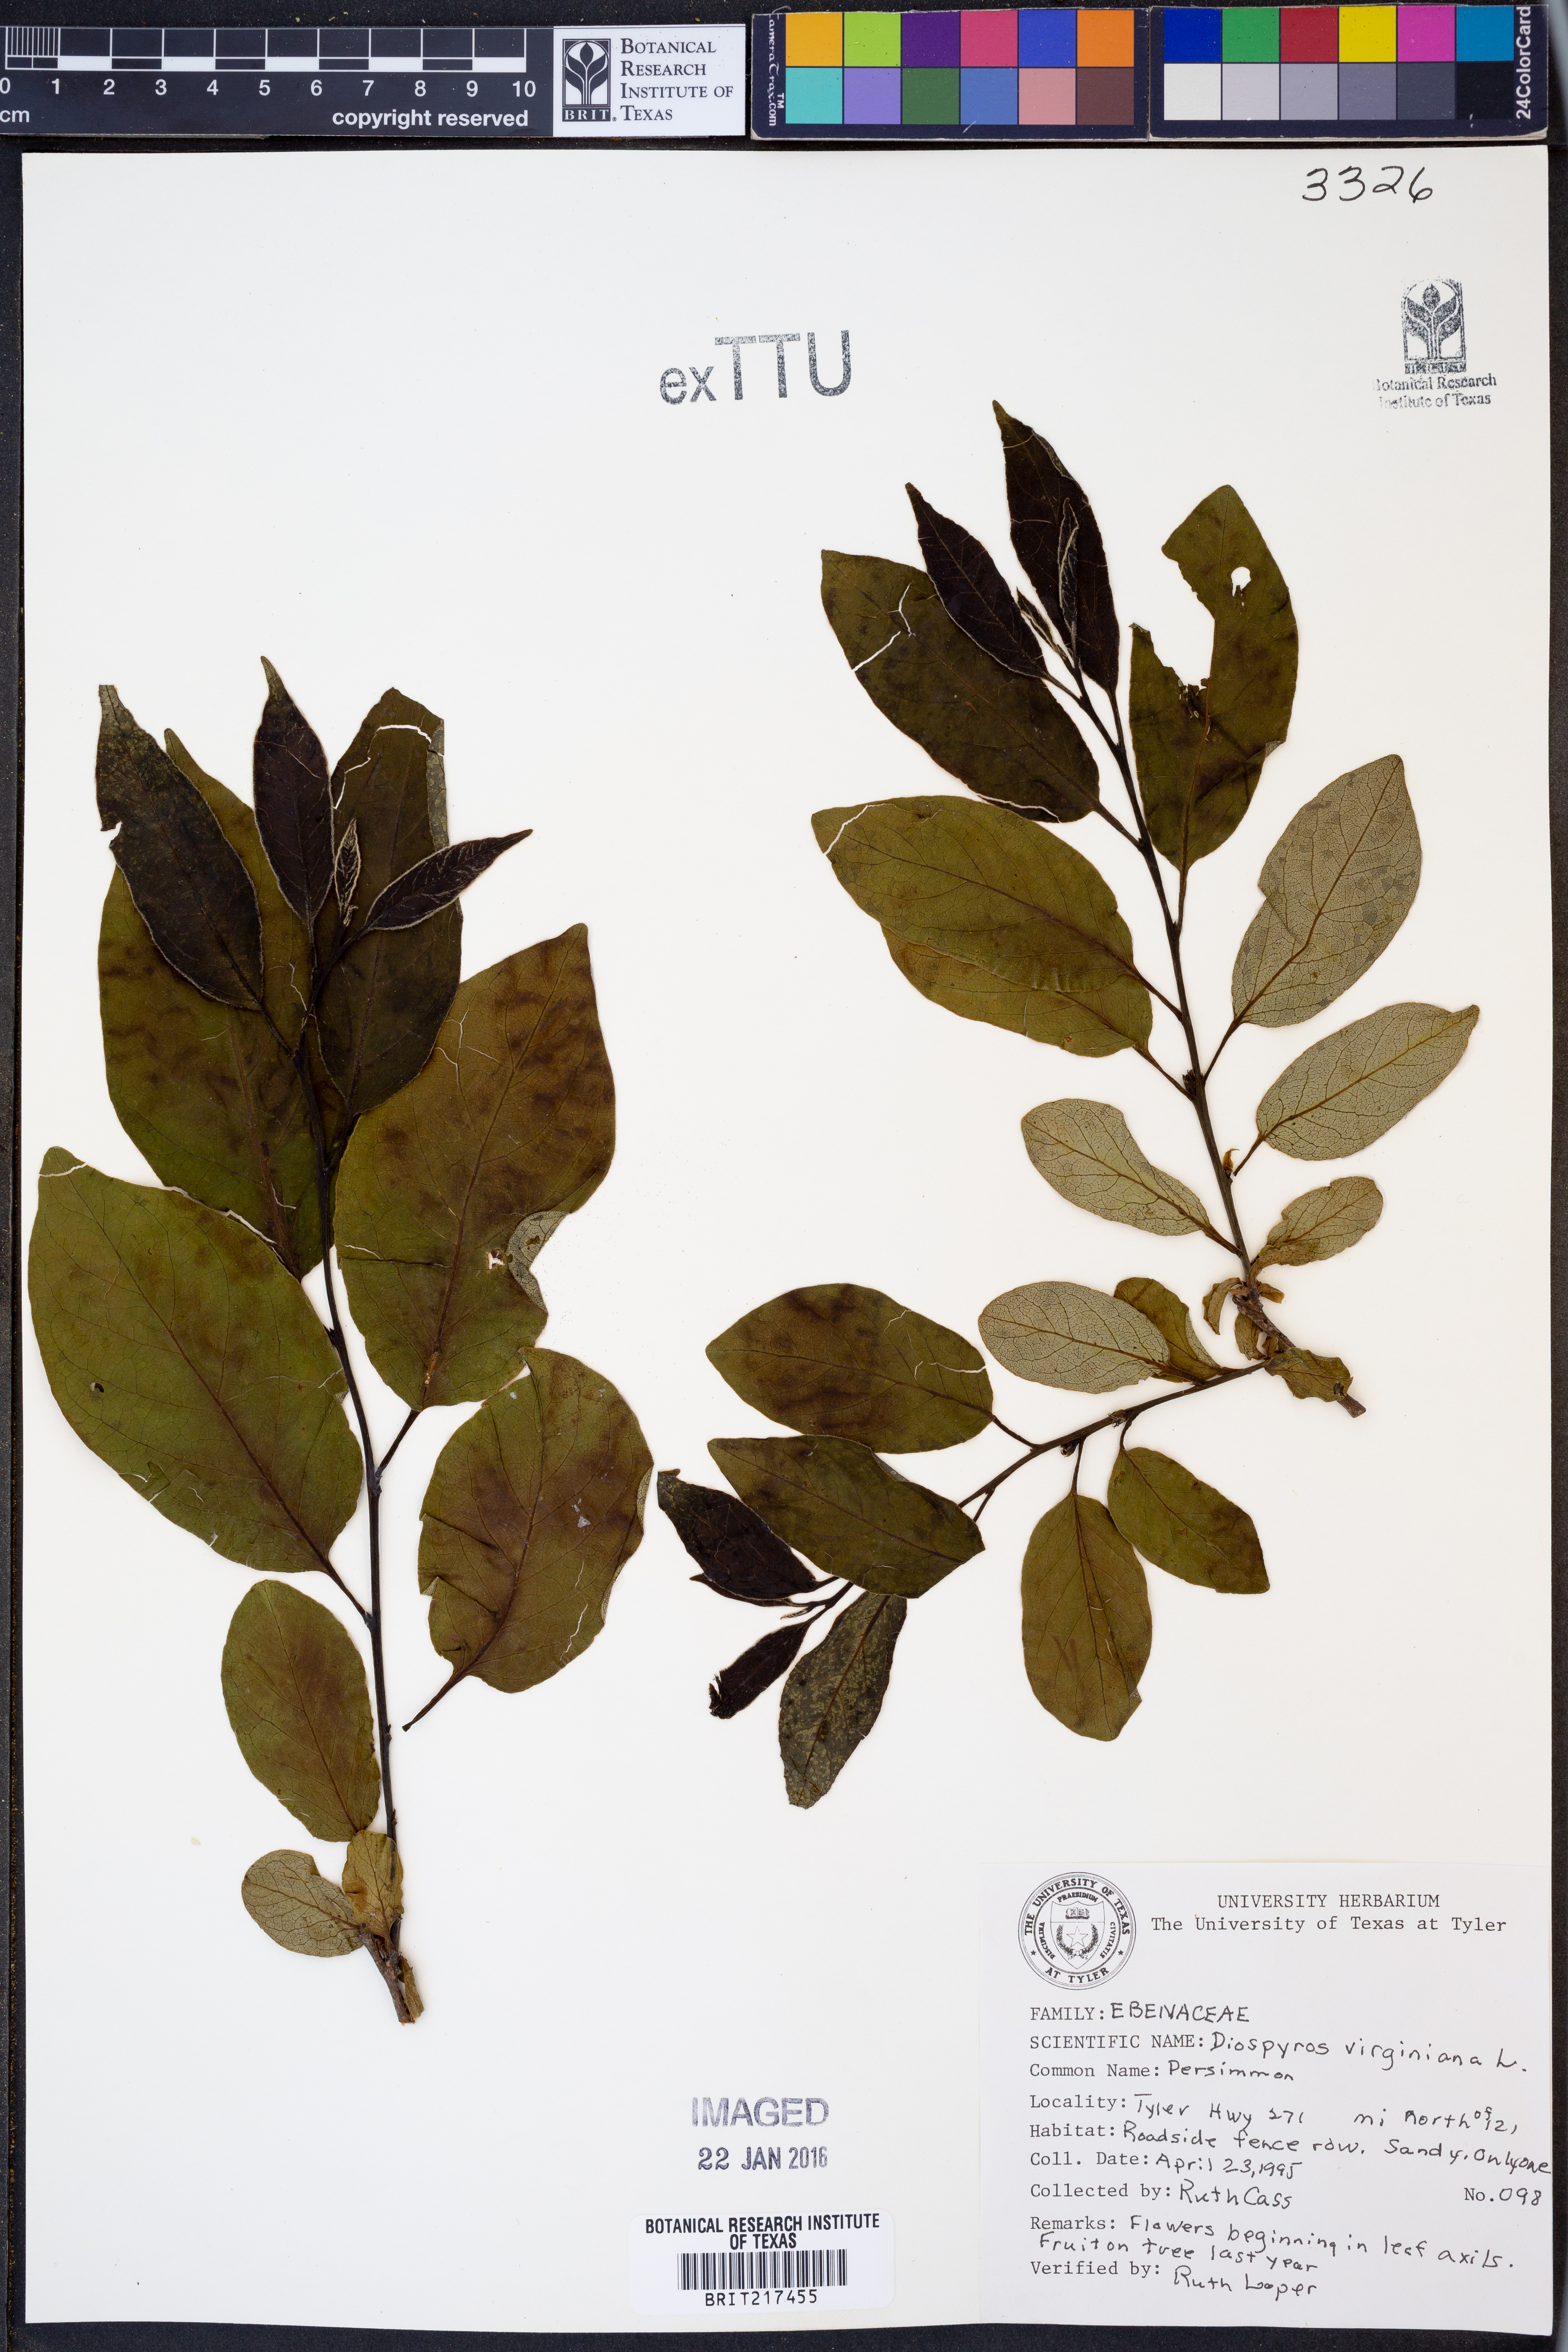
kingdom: Plantae
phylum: Tracheophyta
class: Magnoliopsida
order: Ericales
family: Ebenaceae
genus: Diospyros
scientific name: Diospyros virginiana
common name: Persimmon
